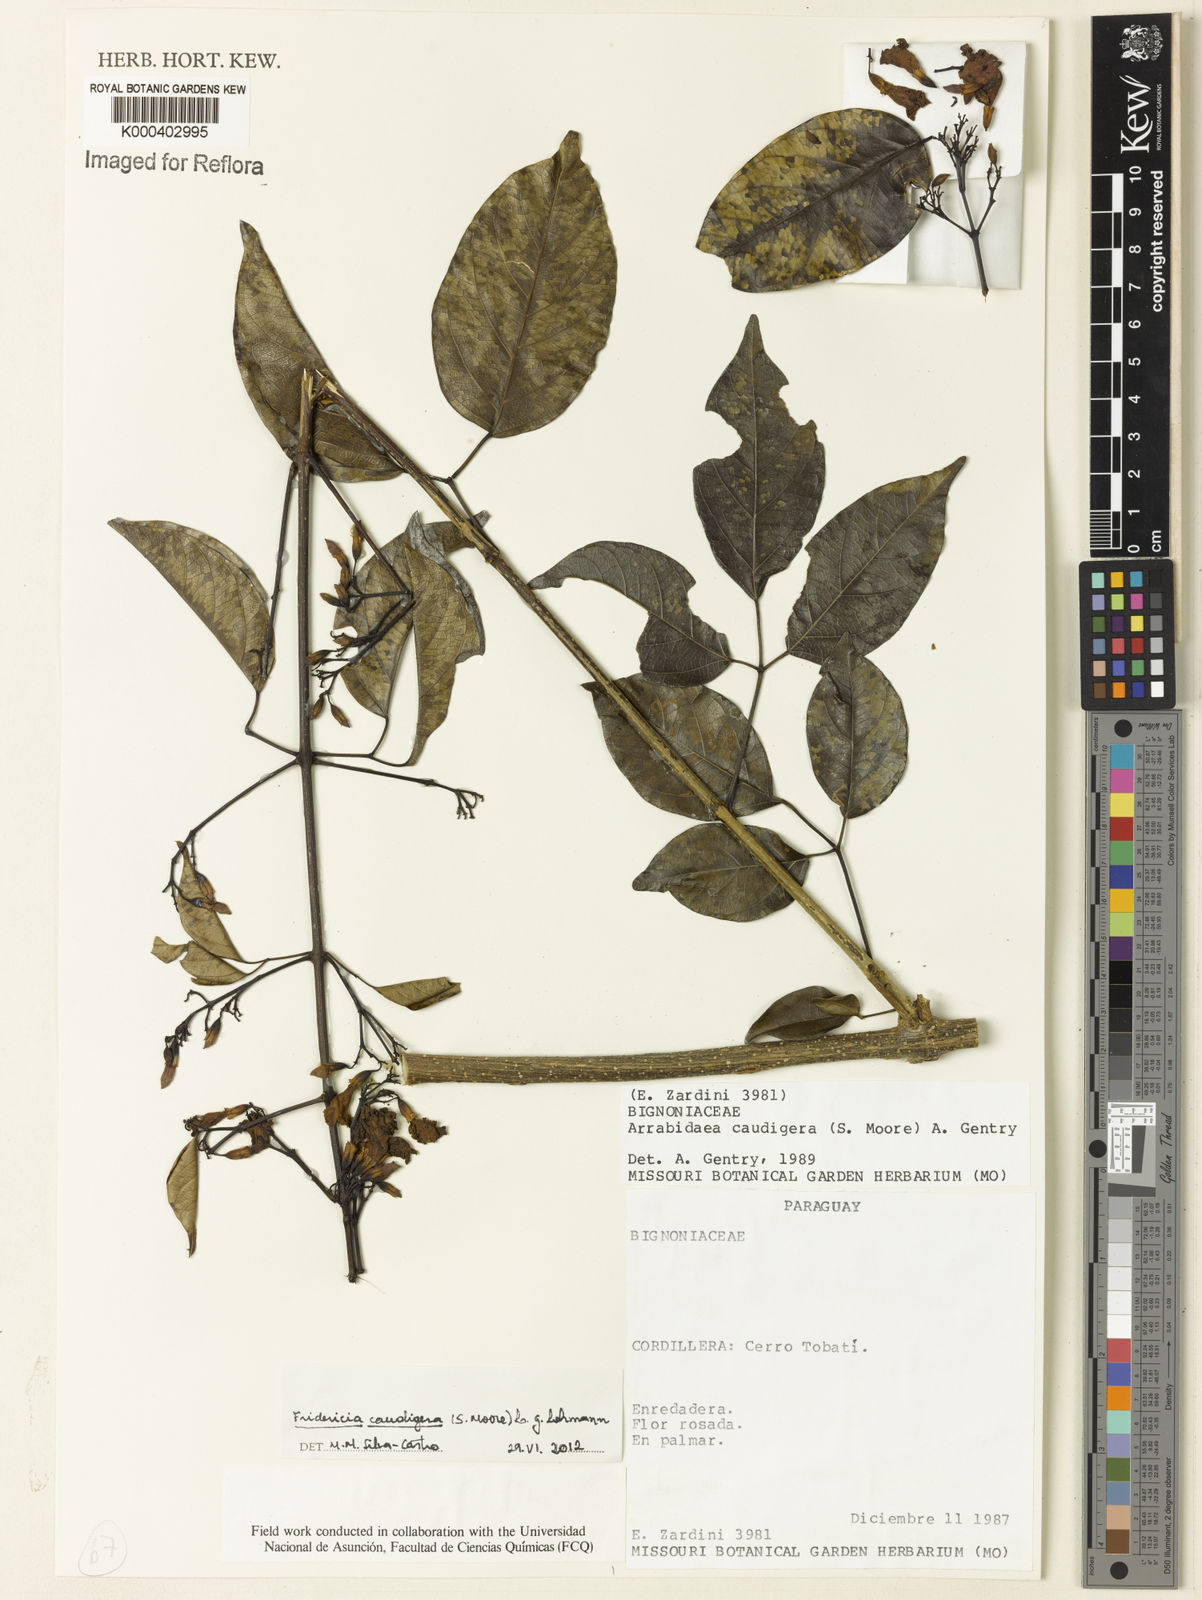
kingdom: Plantae
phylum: Tracheophyta
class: Magnoliopsida
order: Lamiales
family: Bignoniaceae
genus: Fridericia
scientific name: Fridericia caudigera
